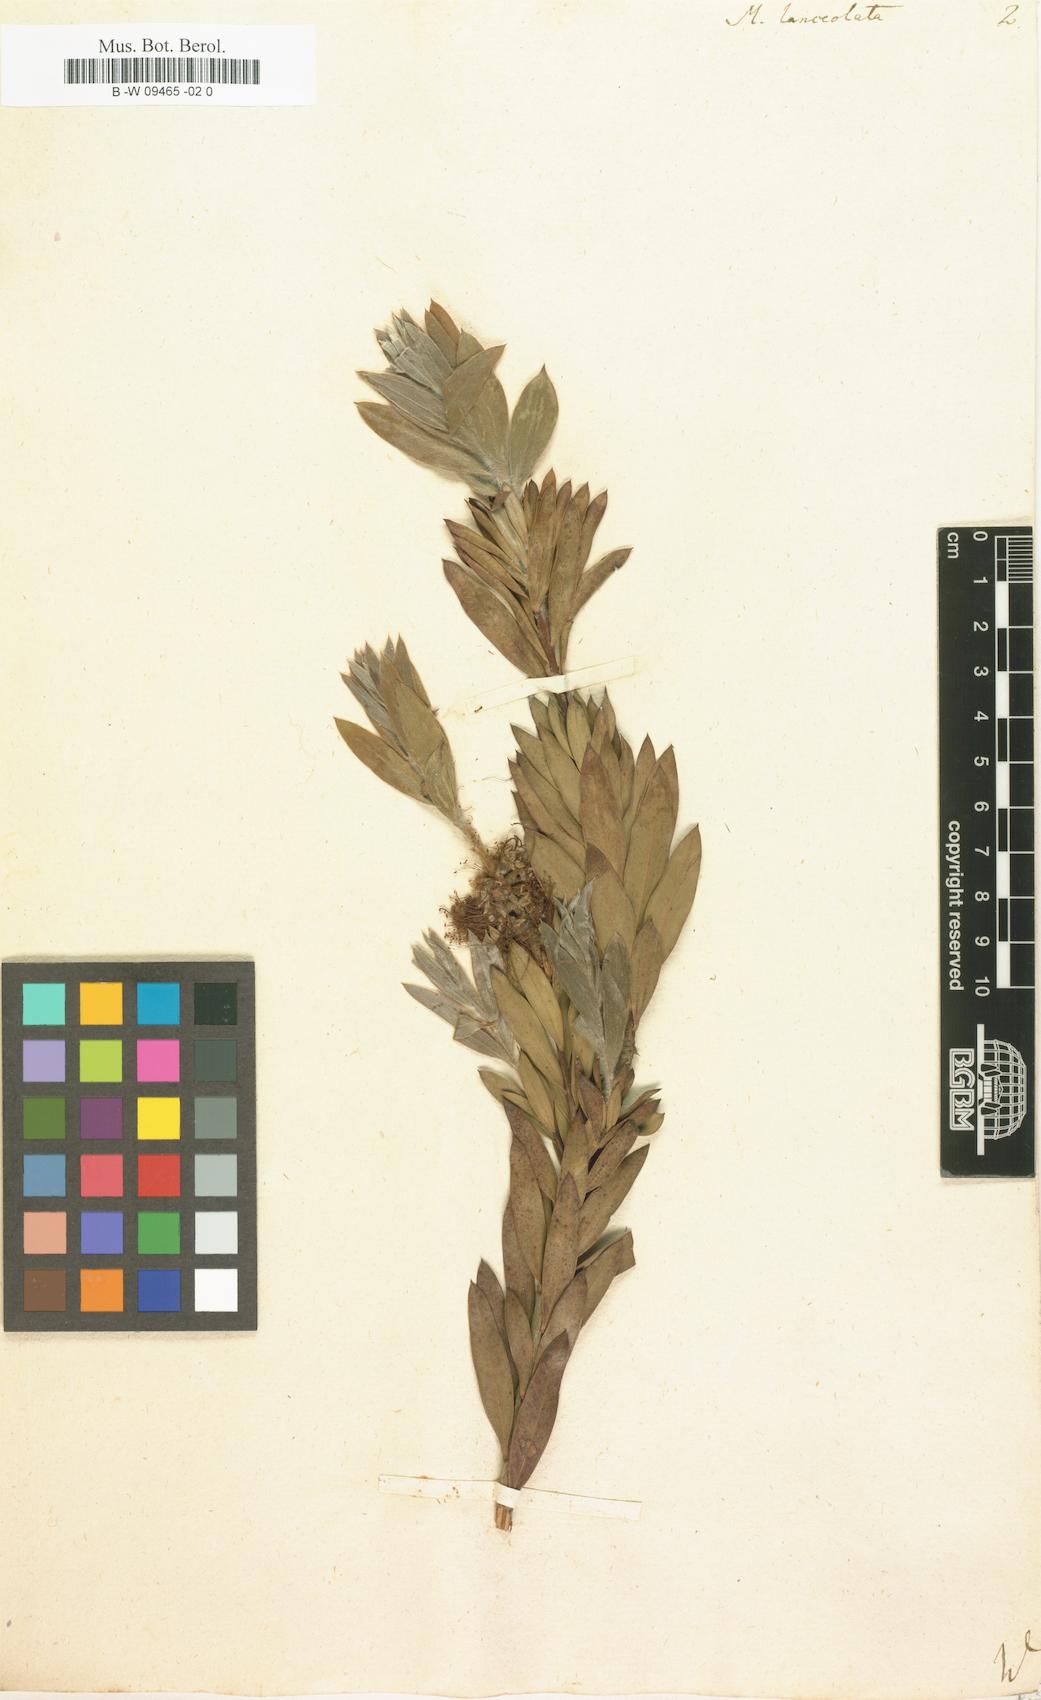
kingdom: Plantae
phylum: Tracheophyta
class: Magnoliopsida
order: Myrtales
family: Myrtaceae
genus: Callistemon
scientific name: Callistemon citrinus
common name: Crimson bottlebrush
